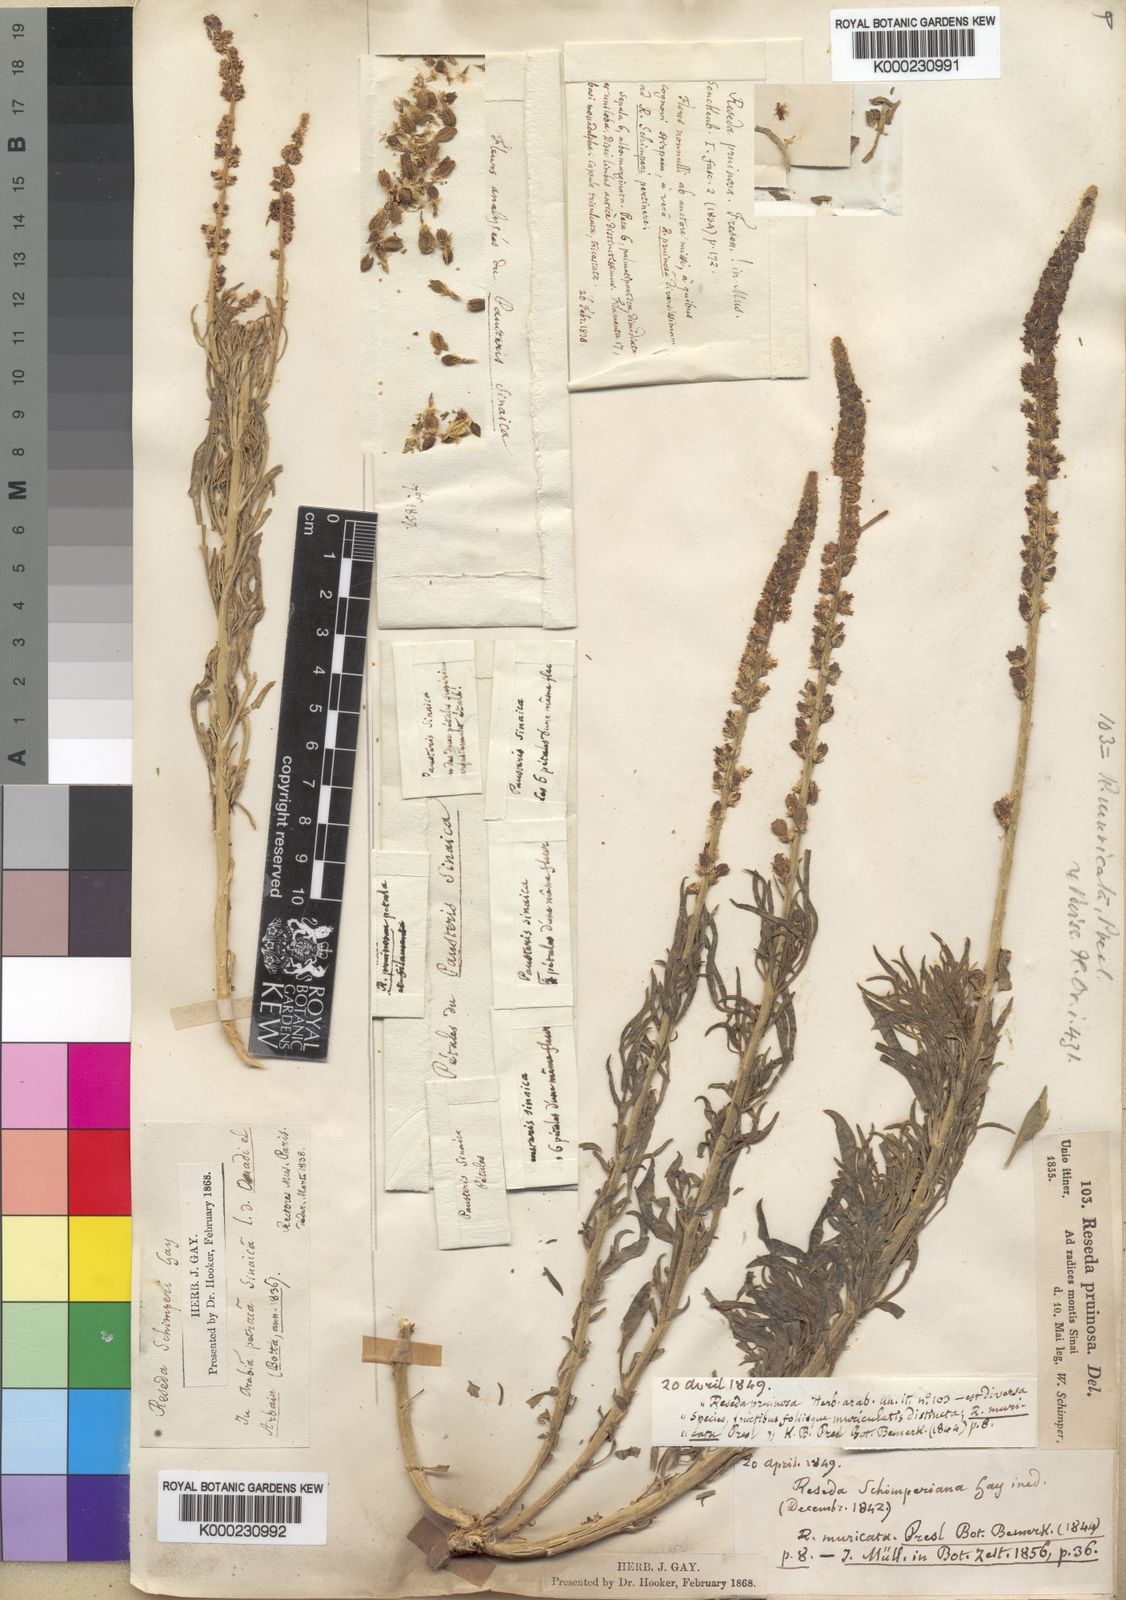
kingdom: Plantae
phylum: Tracheophyta
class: Magnoliopsida
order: Brassicales
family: Resedaceae
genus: Reseda
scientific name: Reseda muricata
